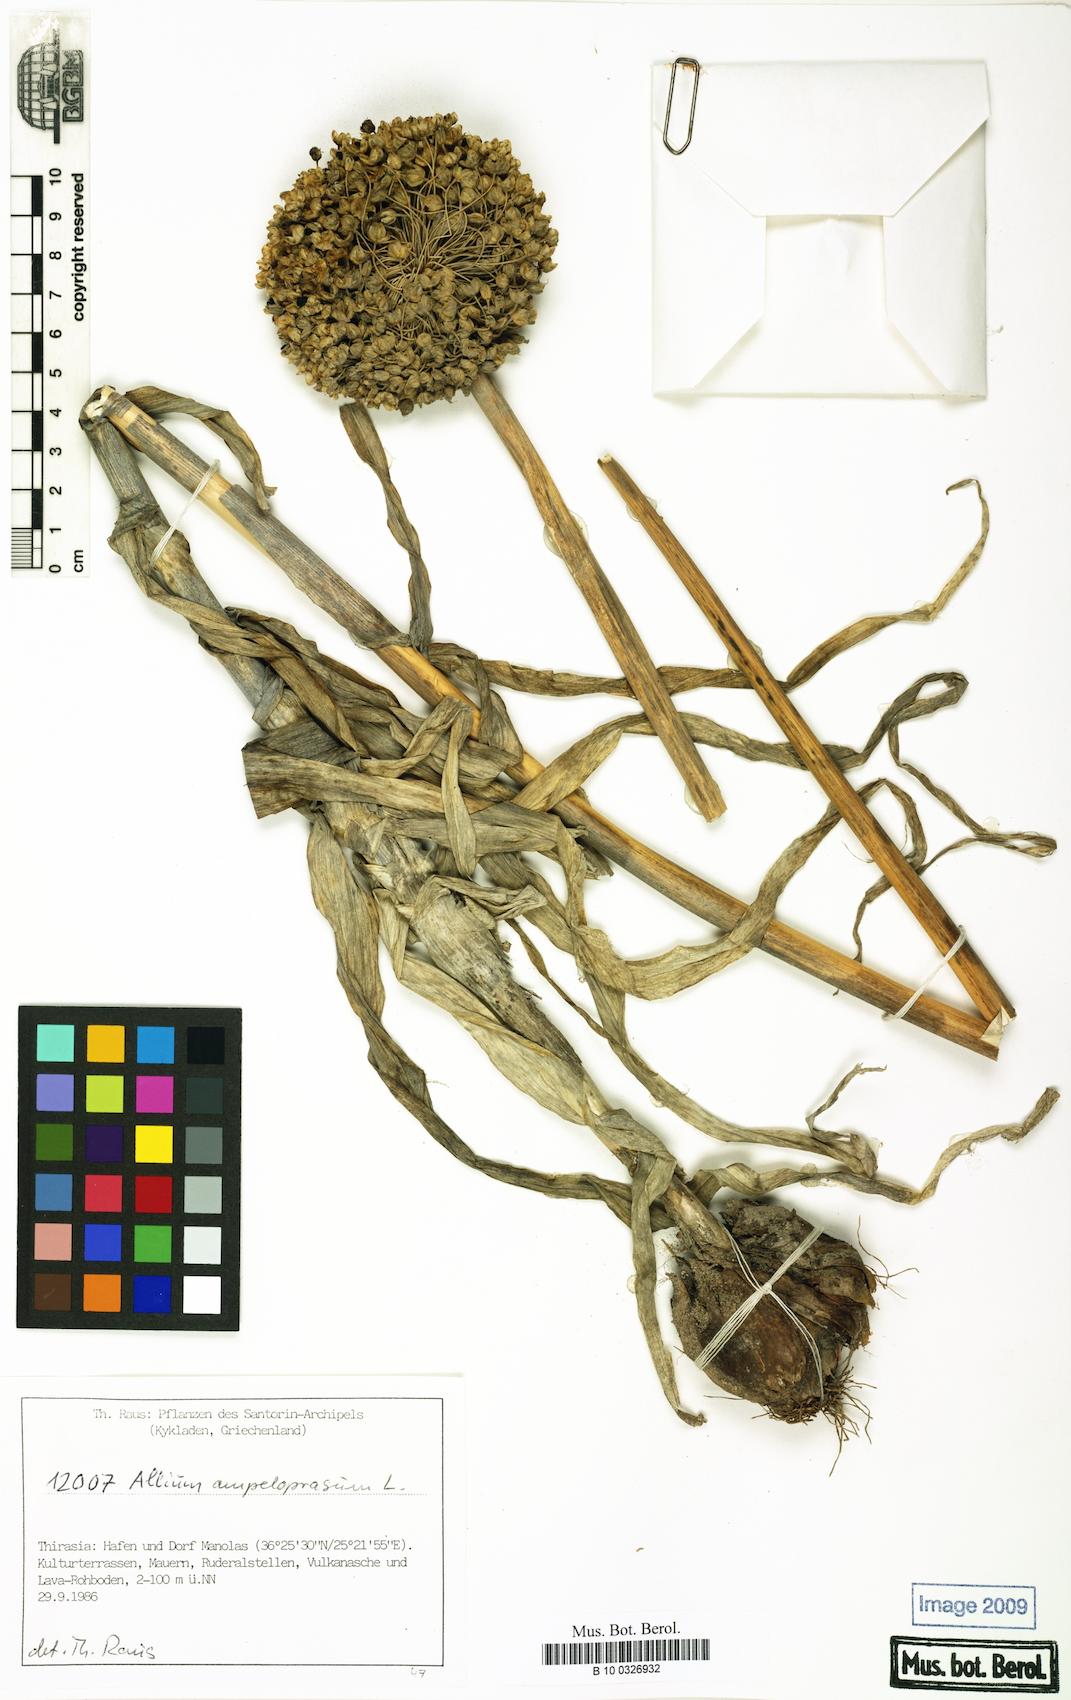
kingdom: Plantae
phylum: Tracheophyta
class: Liliopsida
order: Asparagales
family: Amaryllidaceae
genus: Allium
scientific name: Allium ampeloprasum
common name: Wild leek
